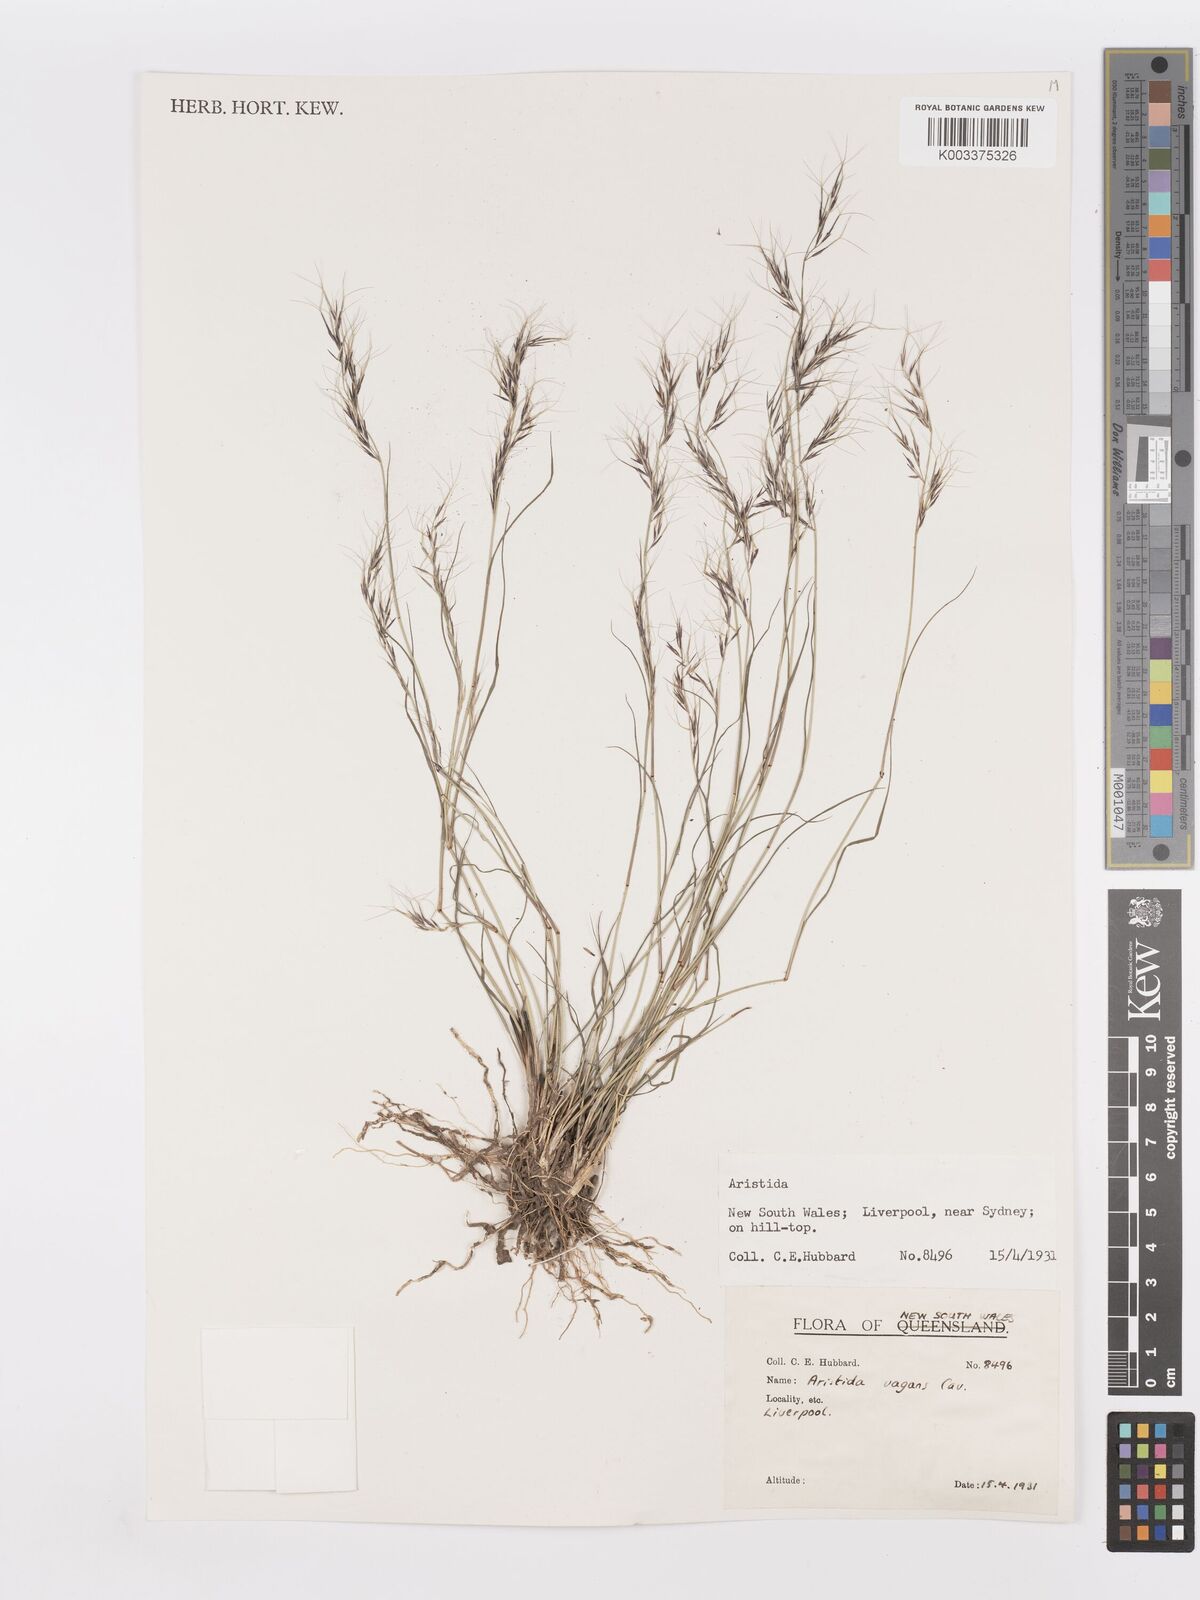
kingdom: Plantae
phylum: Tracheophyta
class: Liliopsida
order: Poales
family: Poaceae
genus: Aristida
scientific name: Aristida vagans
